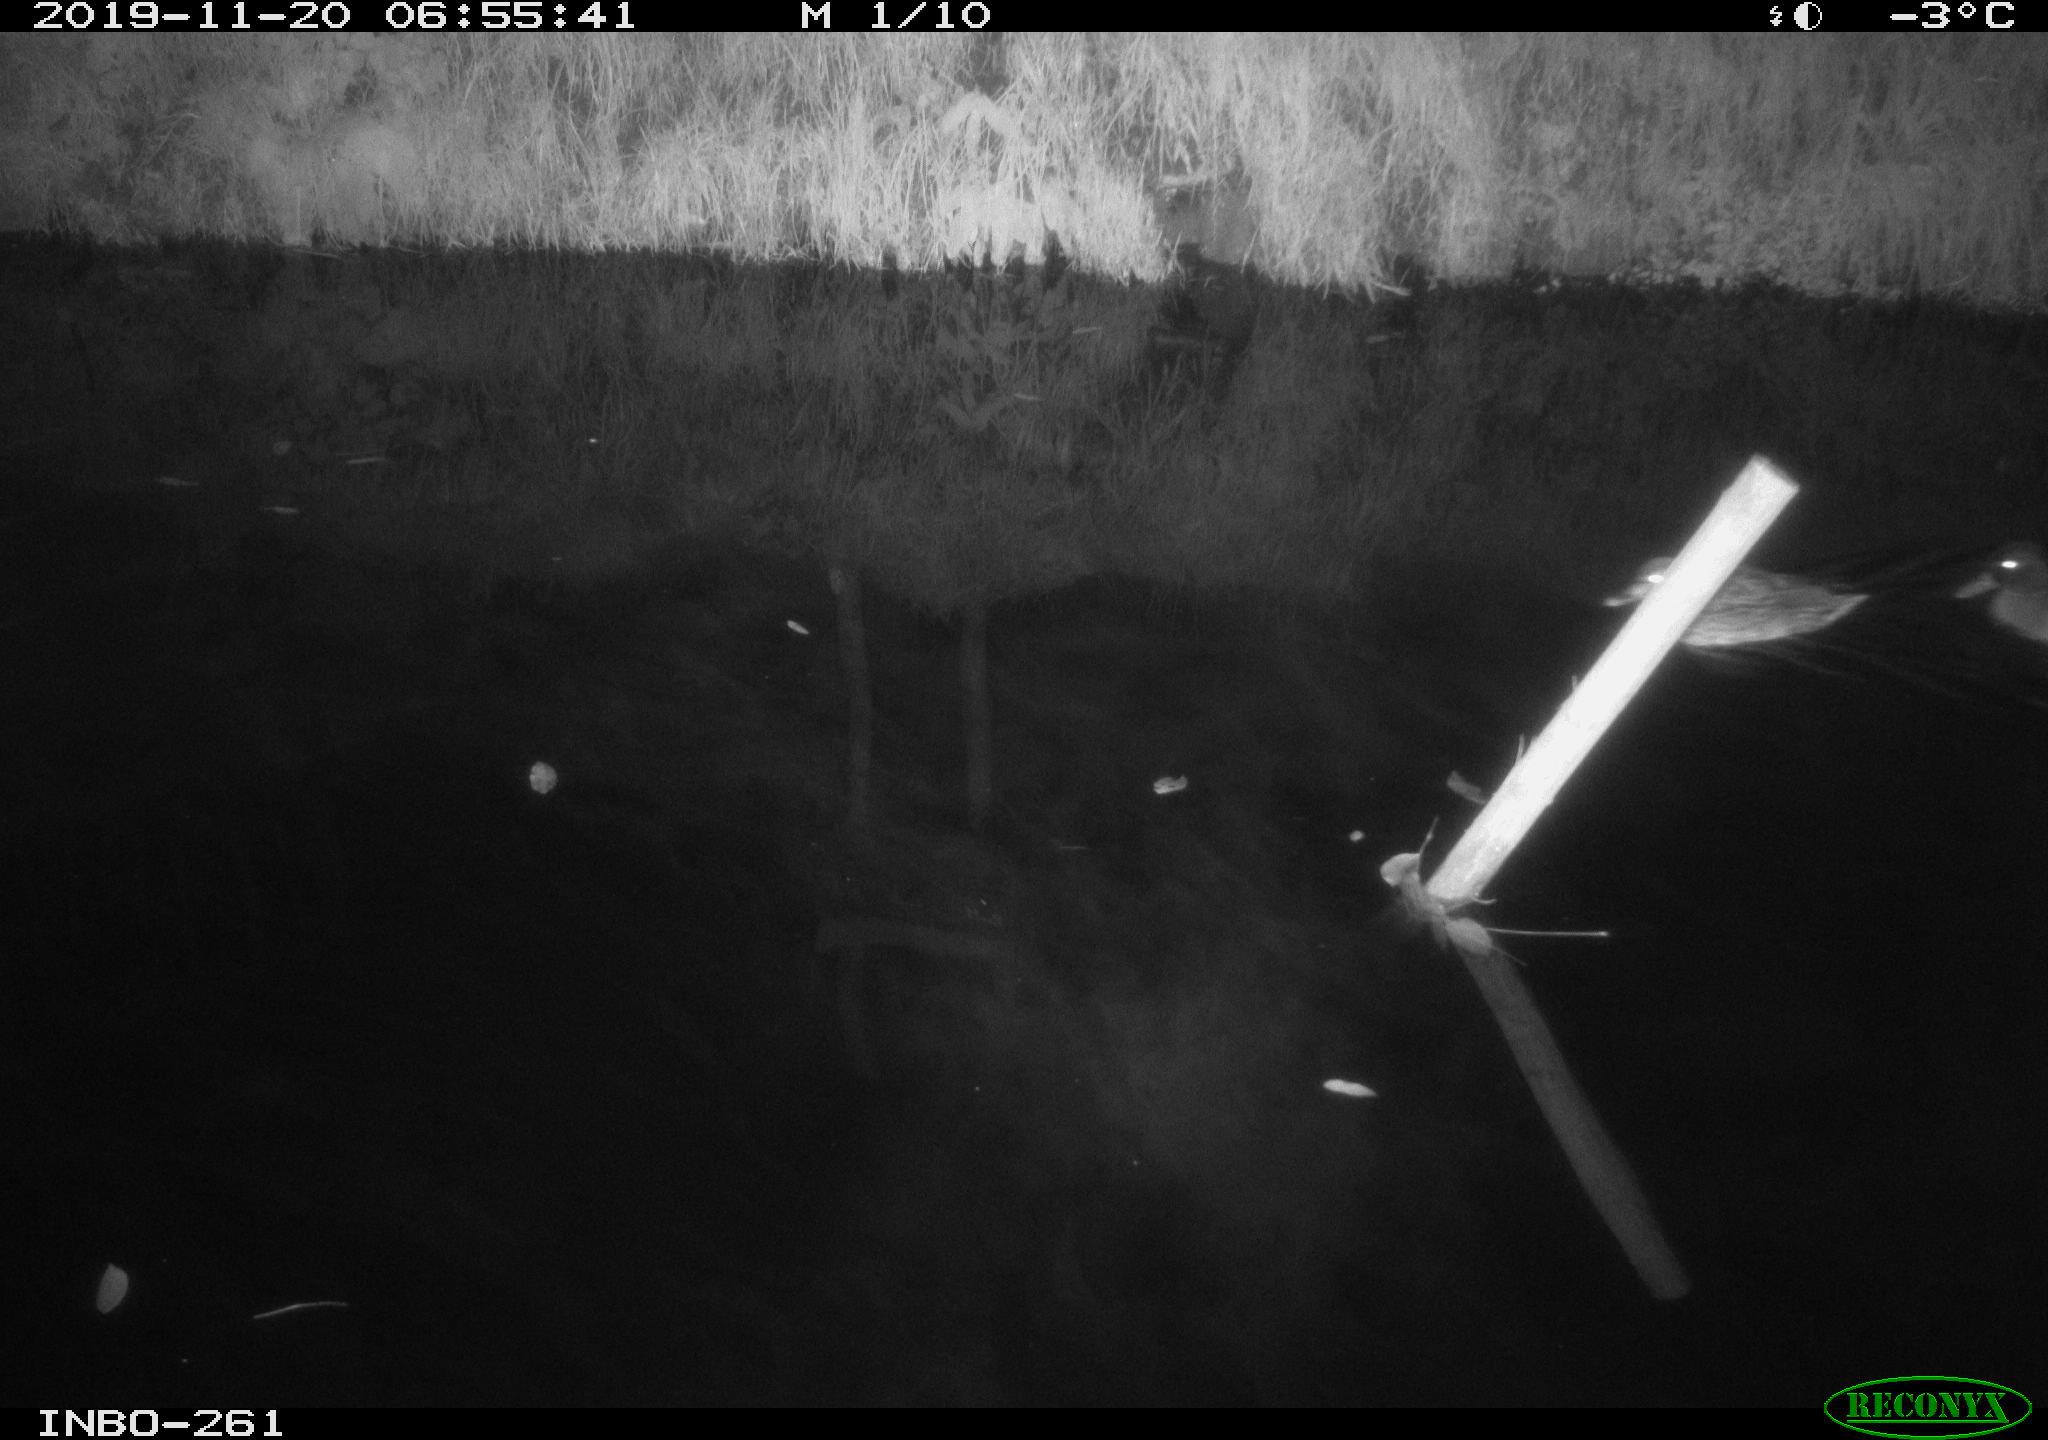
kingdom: Animalia
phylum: Chordata
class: Aves
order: Anseriformes
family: Anatidae
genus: Anas
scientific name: Anas platyrhynchos
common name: Mallard
